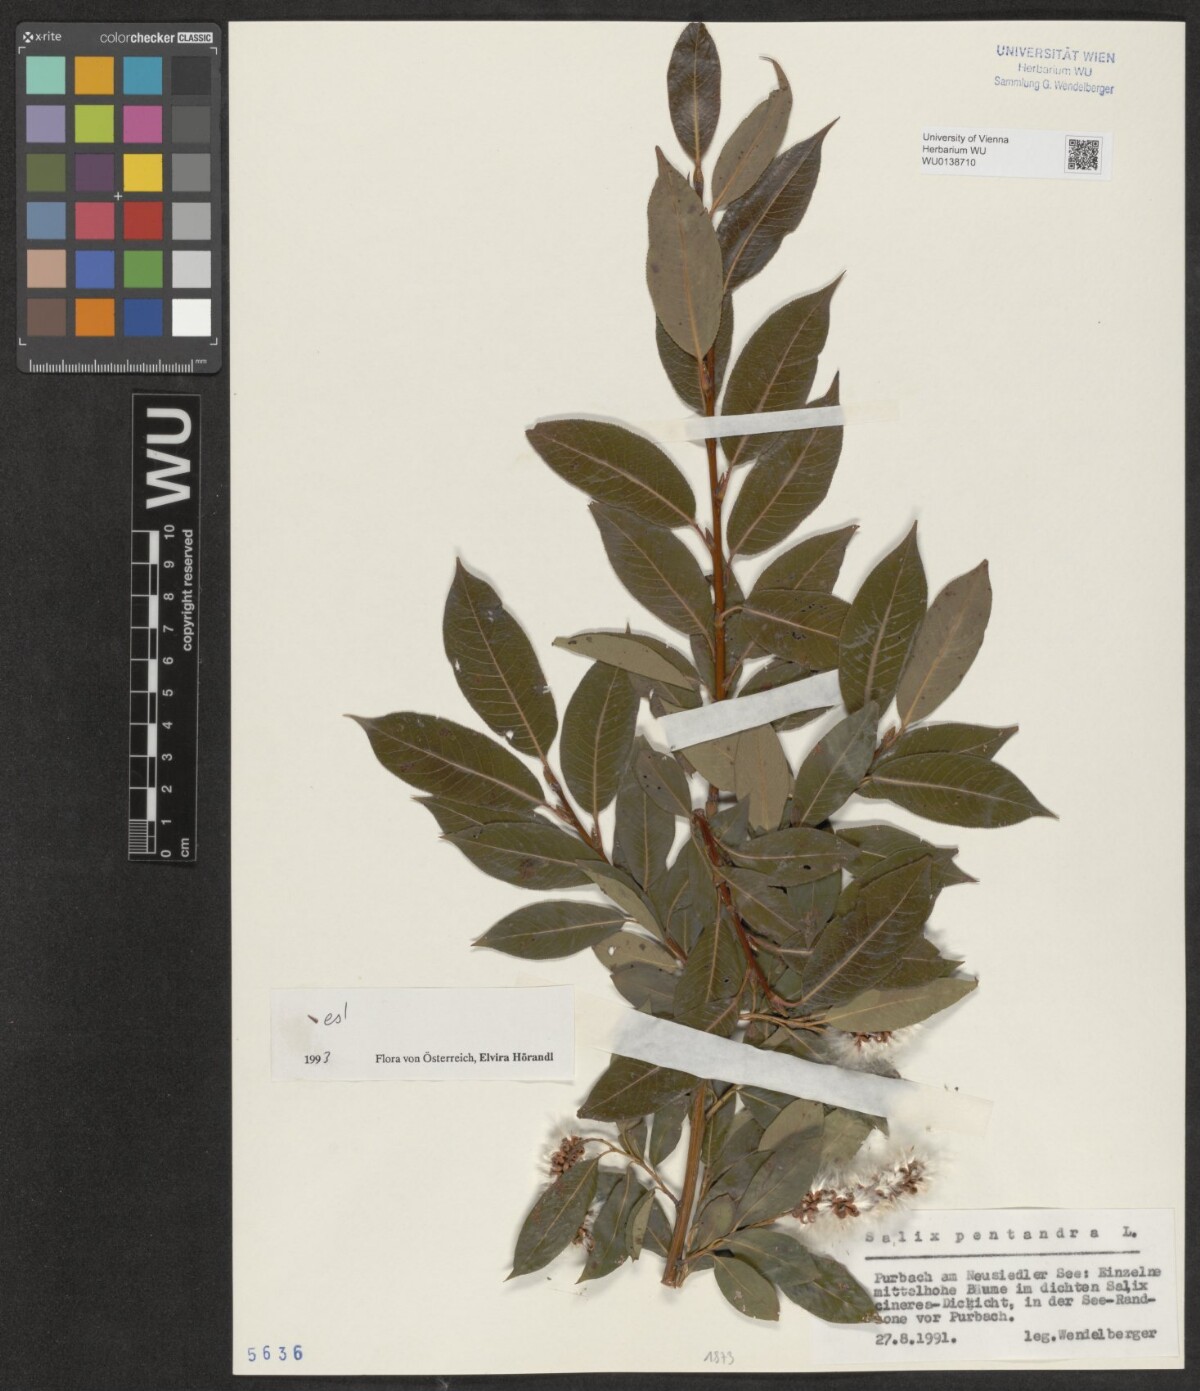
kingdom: Plantae
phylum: Tracheophyta
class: Magnoliopsida
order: Malpighiales
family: Salicaceae
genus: Salix
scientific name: Salix pentandra
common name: Bay willow
